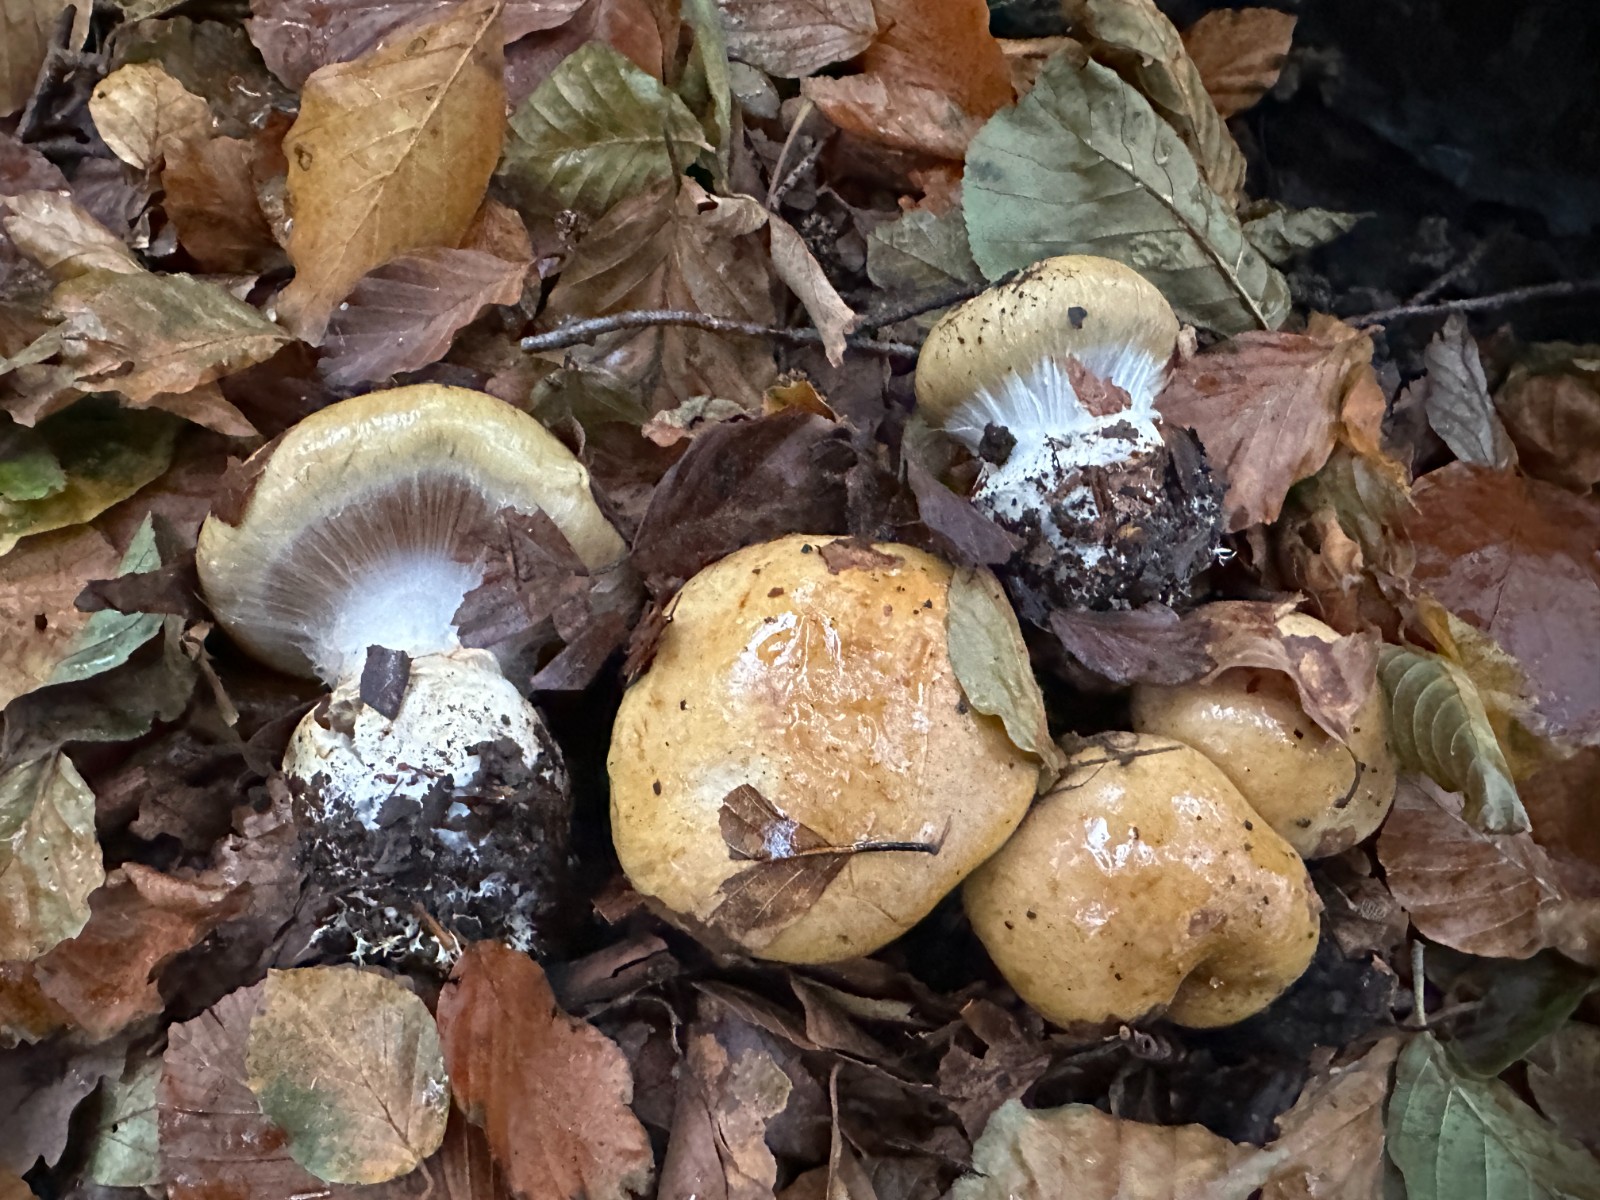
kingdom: Fungi
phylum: Basidiomycota
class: Agaricomycetes
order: Agaricales
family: Cortinariaceae
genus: Cortinarius
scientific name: Cortinarius anserinus
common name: bøge-slørhat
